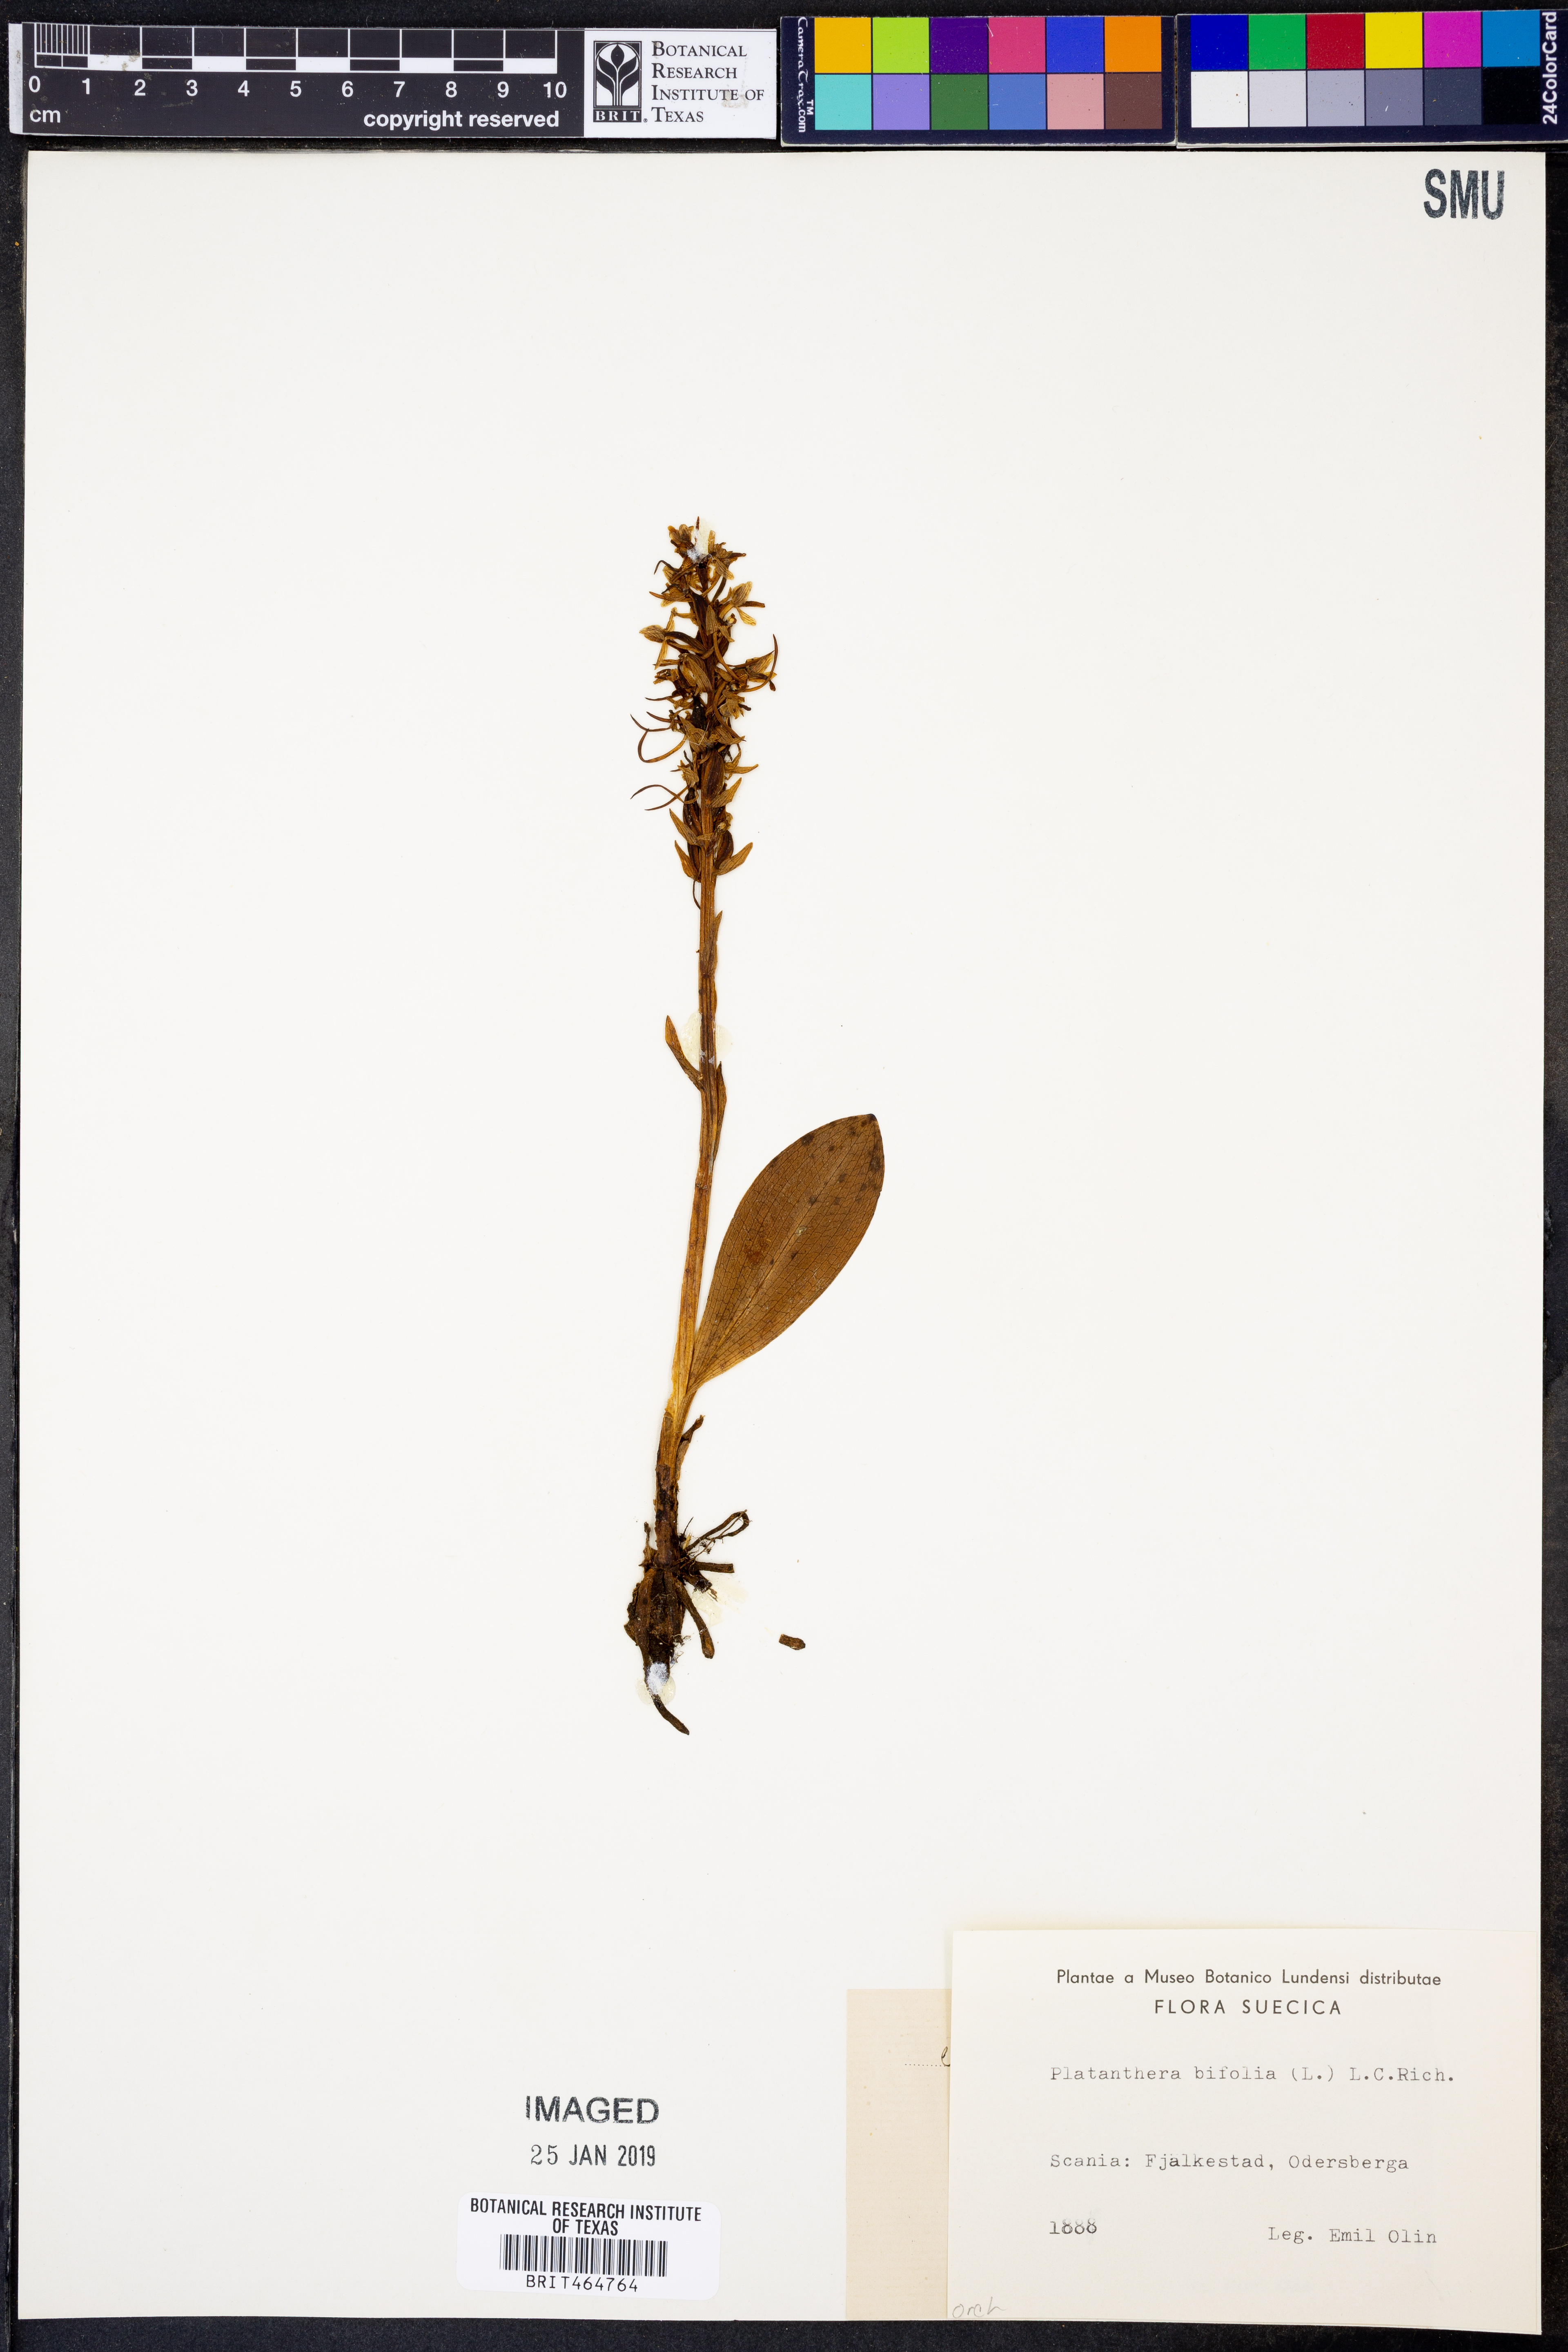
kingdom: Plantae
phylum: Tracheophyta
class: Liliopsida
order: Asparagales
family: Orchidaceae
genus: Platanthera
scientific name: Platanthera bifolia
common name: Lesser butterfly-orchid
